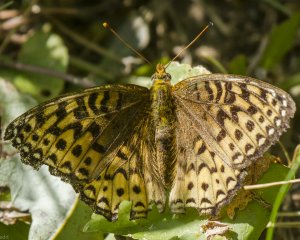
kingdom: Animalia
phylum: Arthropoda
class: Insecta
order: Lepidoptera
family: Nymphalidae
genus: Speyeria
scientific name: Speyeria atlantis
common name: Atlantis Fritillary
